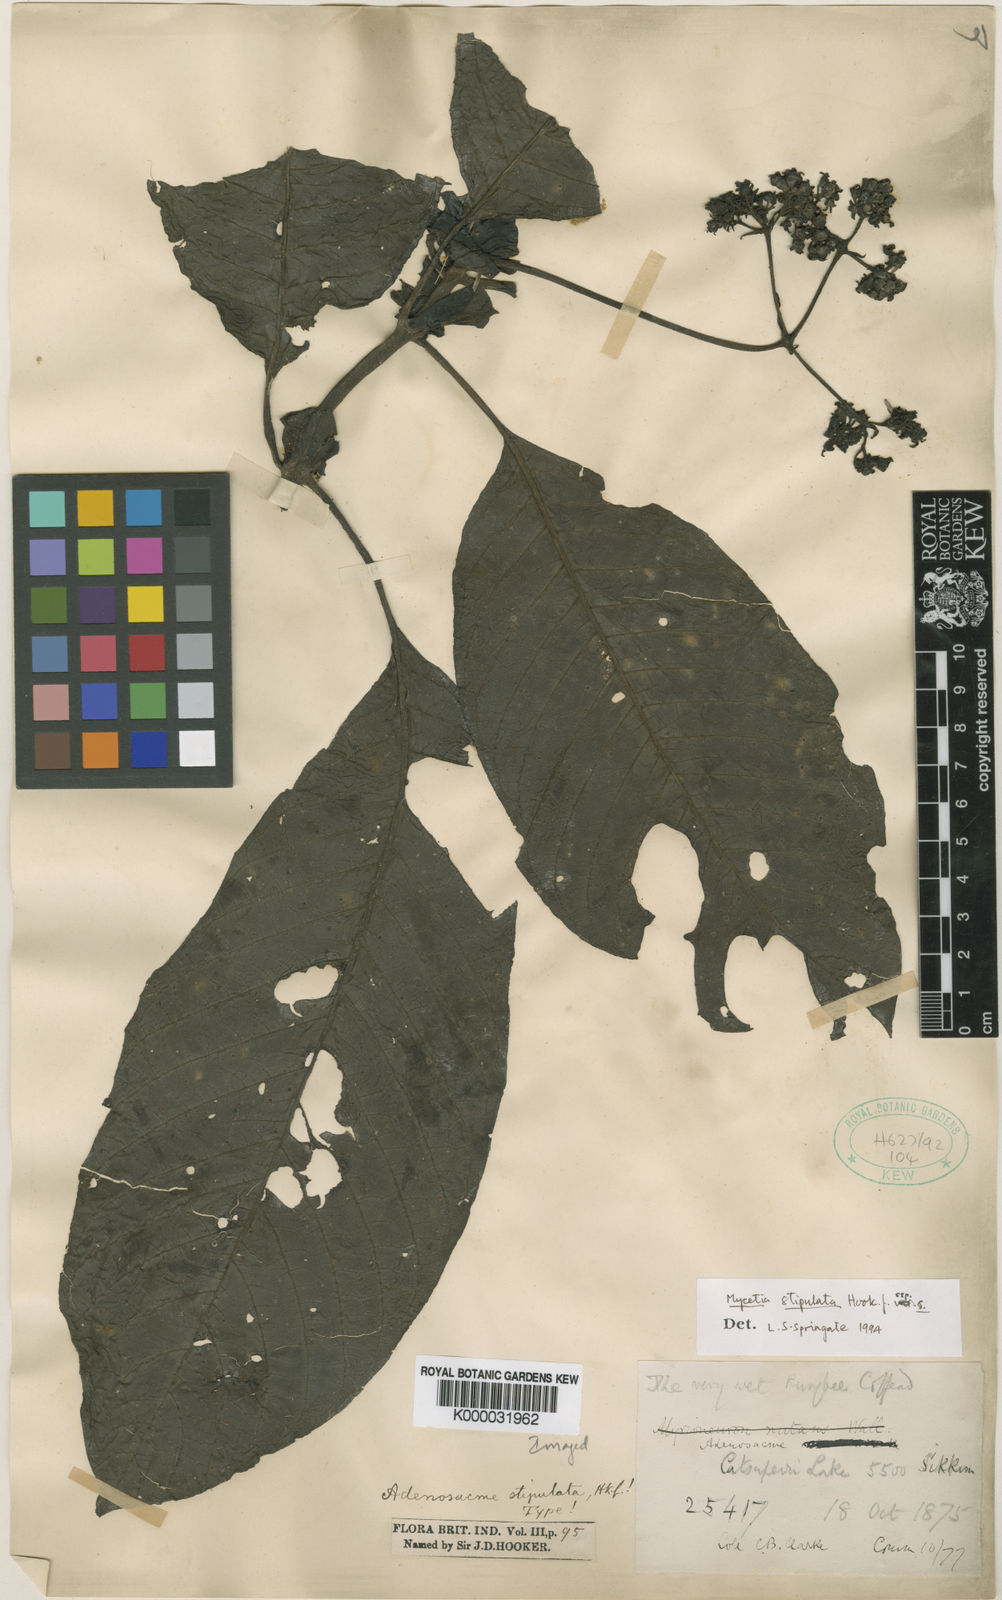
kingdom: Plantae
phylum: Tracheophyta
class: Magnoliopsida
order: Gentianales
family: Rubiaceae
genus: Mycetia
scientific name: Mycetia stipulata
